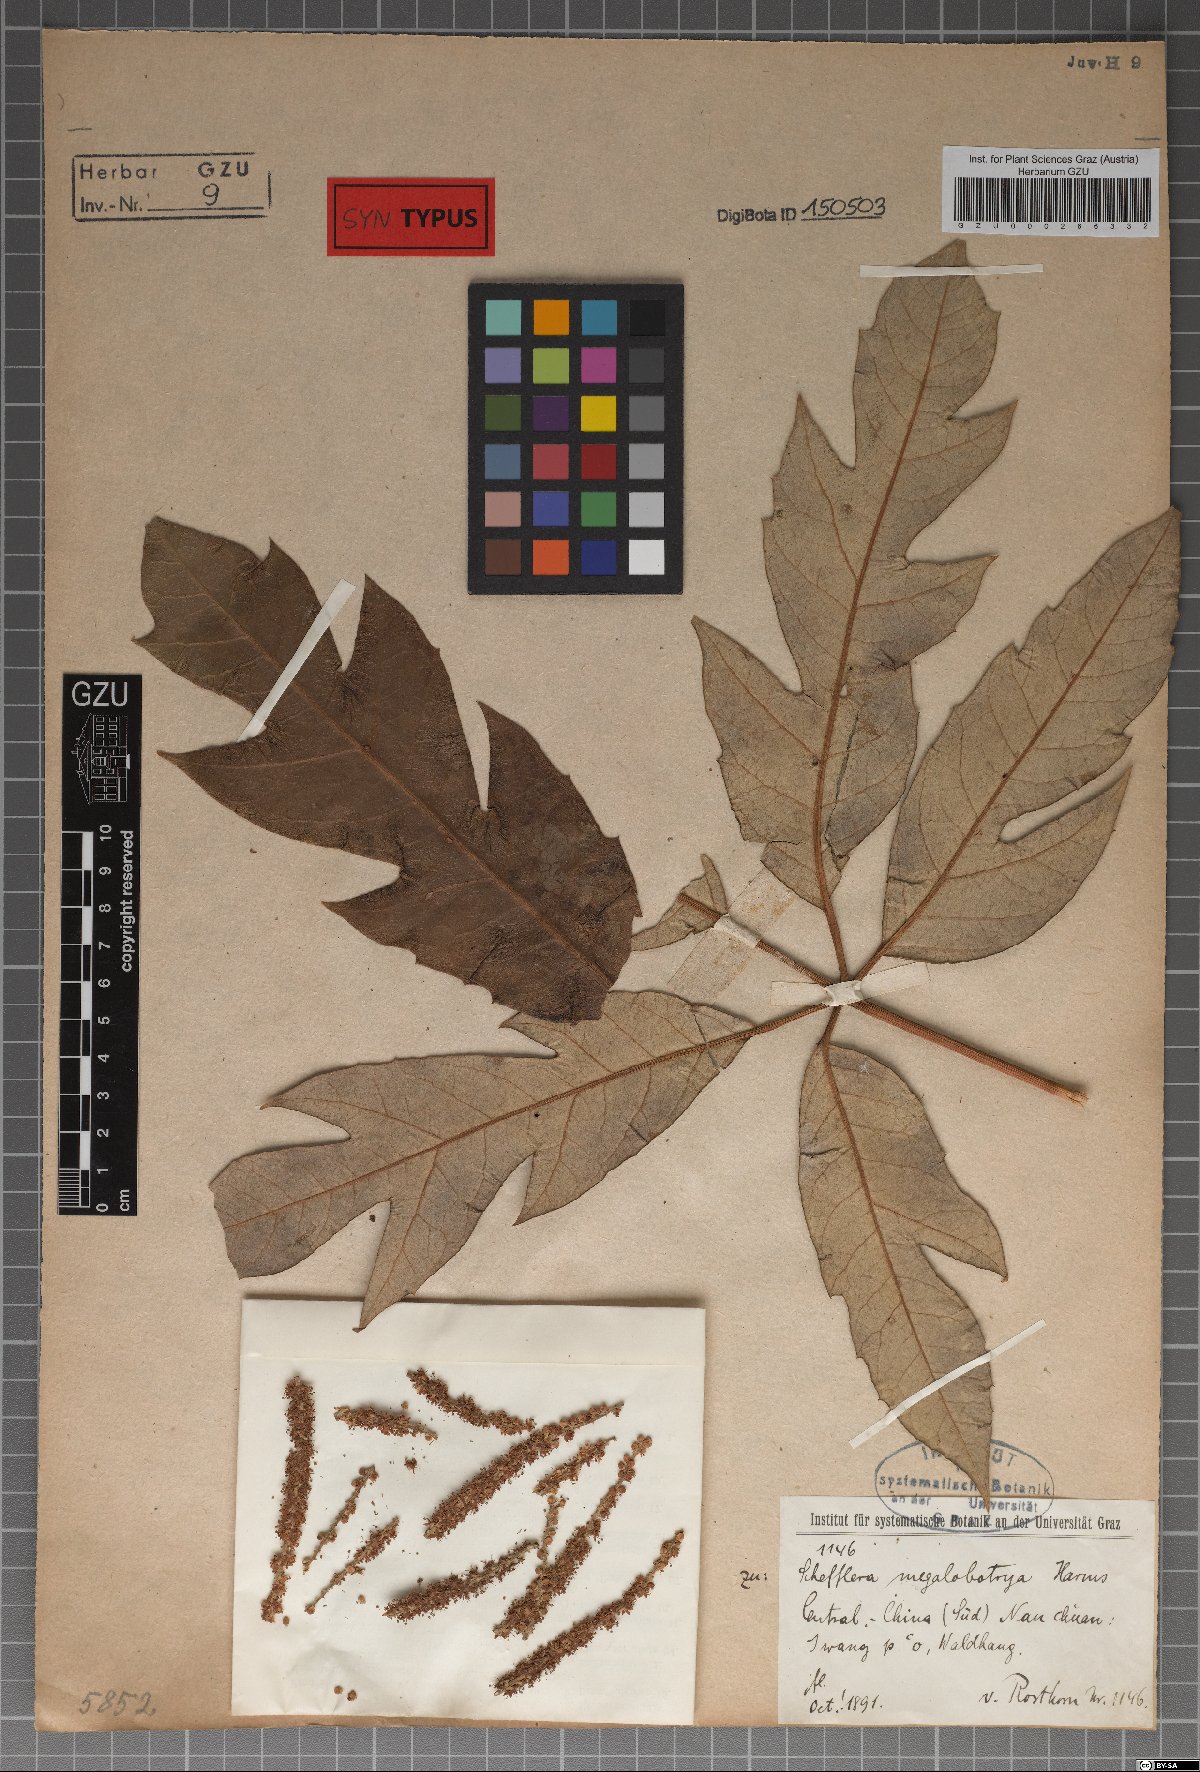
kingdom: Plantae
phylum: Tracheophyta
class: Magnoliopsida
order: Apiales
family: Araliaceae
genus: Schefflera
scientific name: Schefflera megalobotrya
